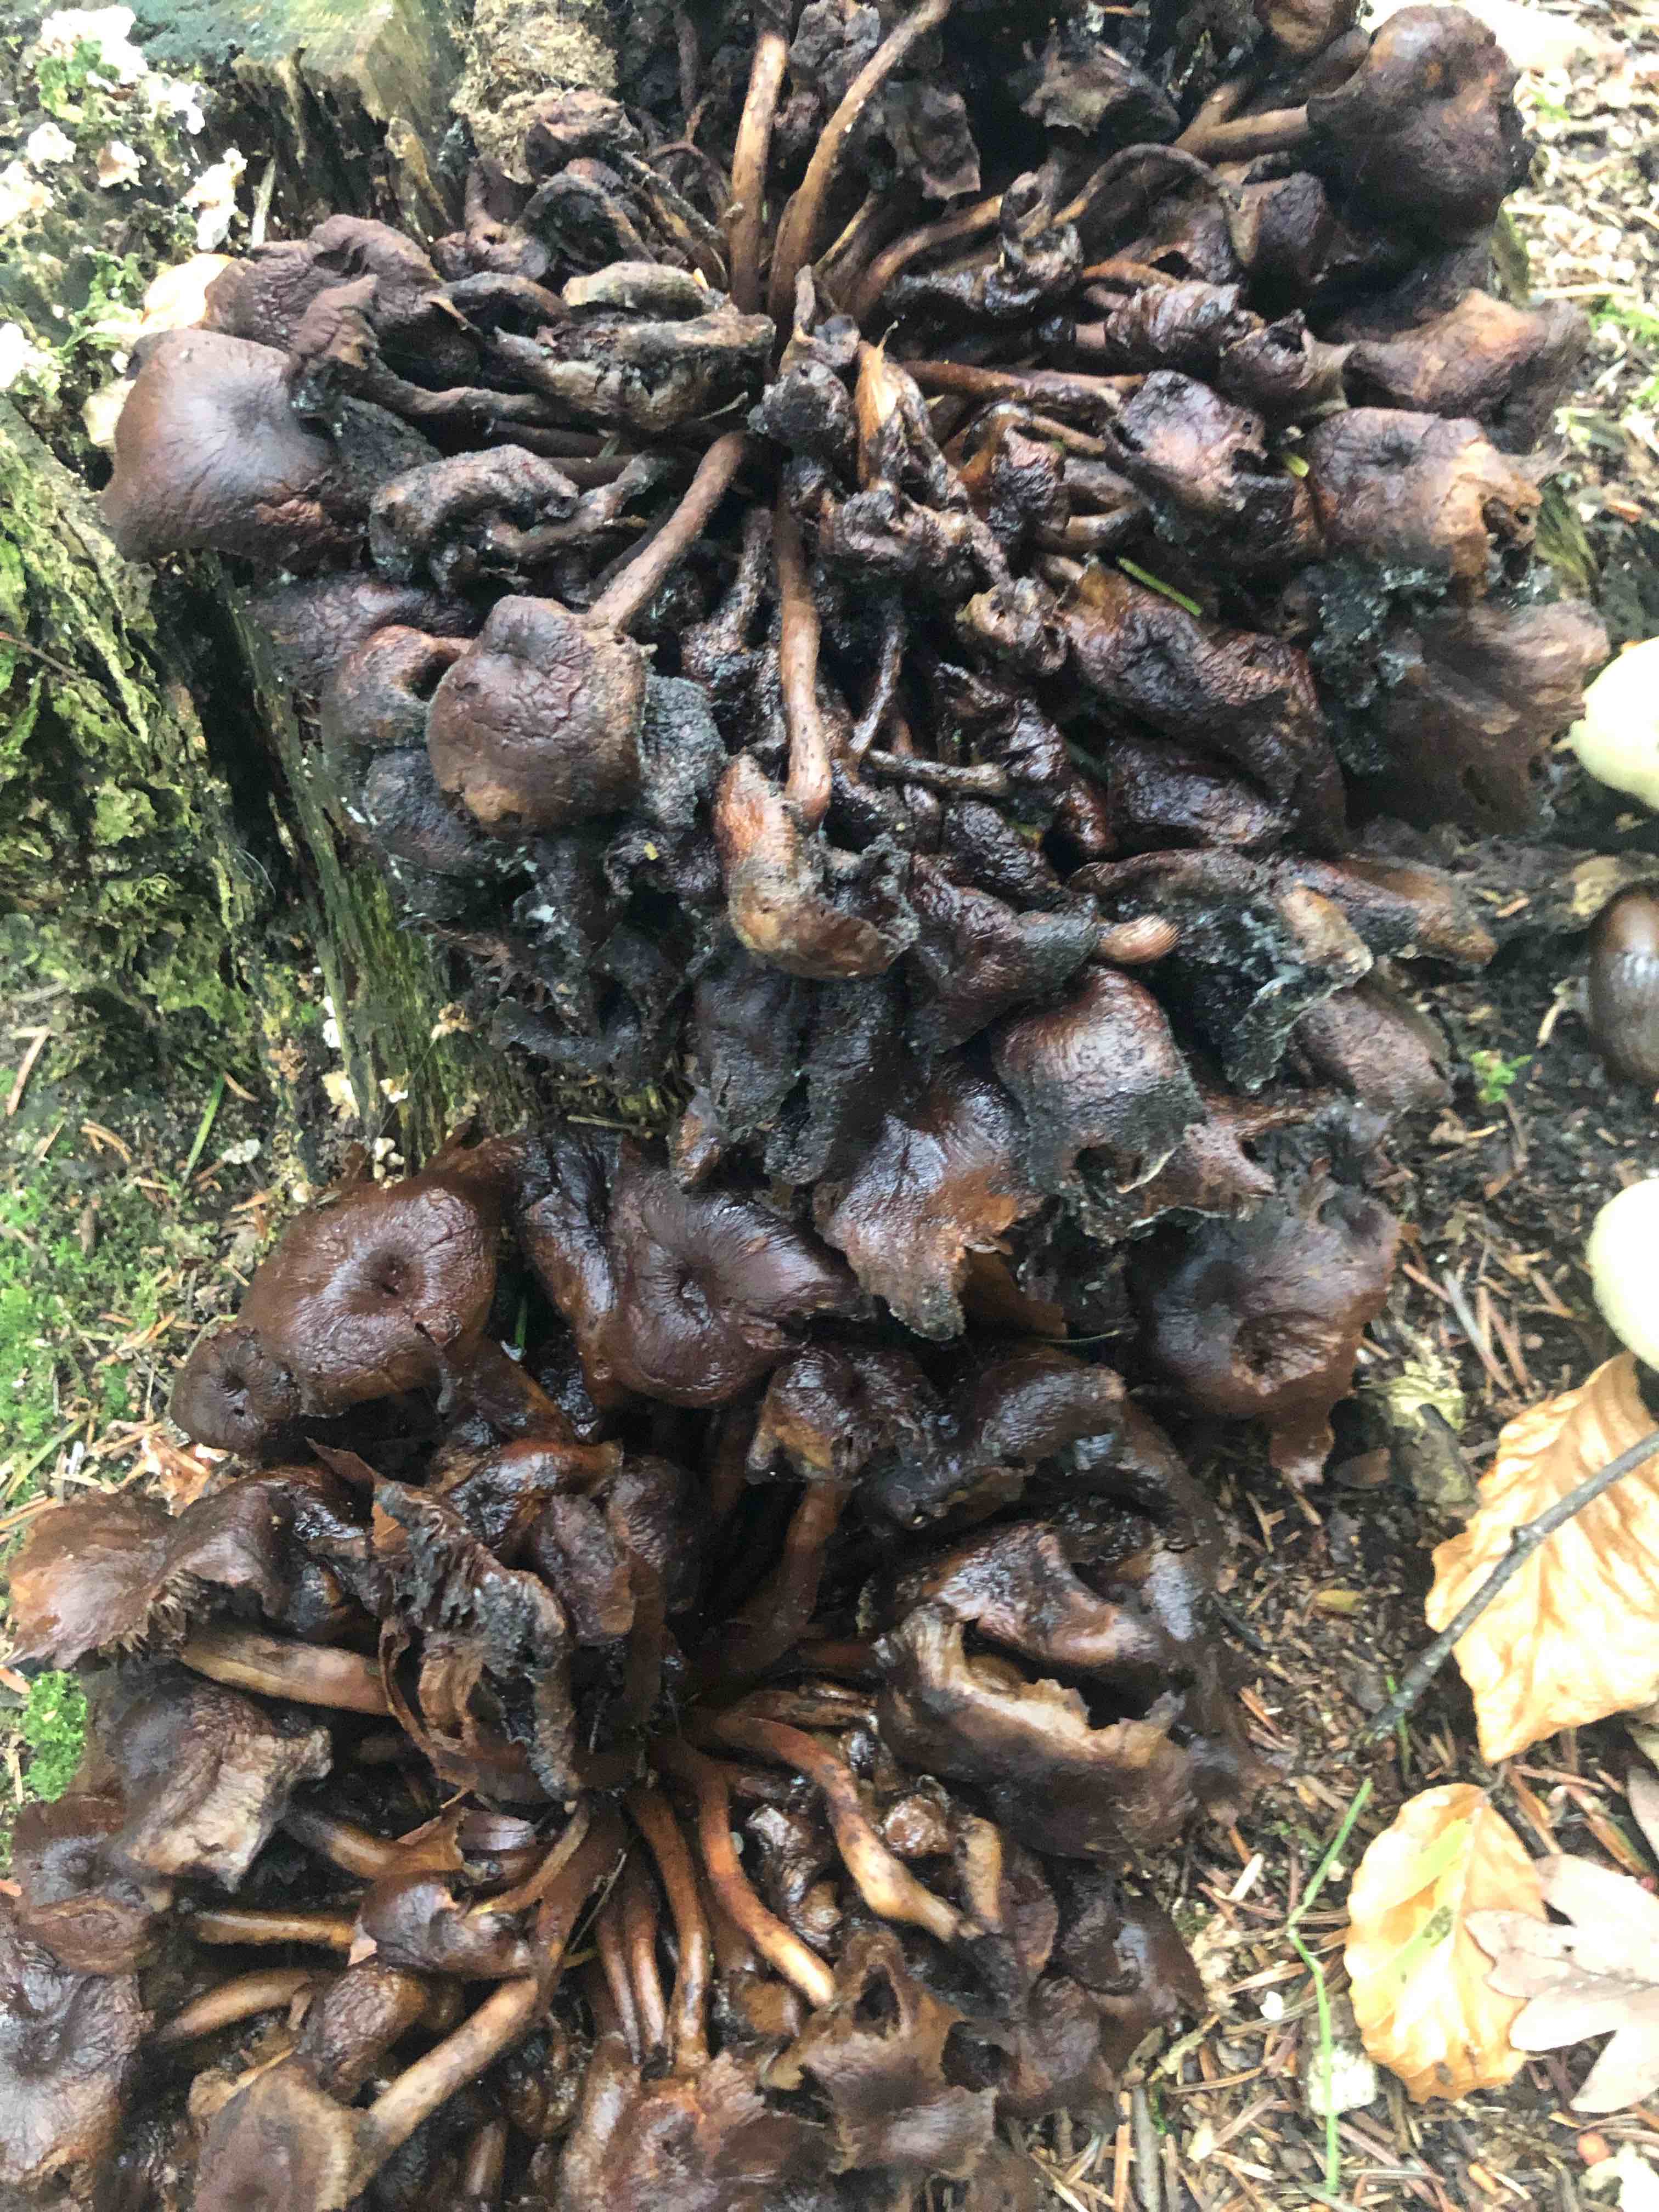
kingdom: Fungi
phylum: Basidiomycota
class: Agaricomycetes
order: Agaricales
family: Strophariaceae
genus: Hypholoma
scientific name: Hypholoma fasciculare
